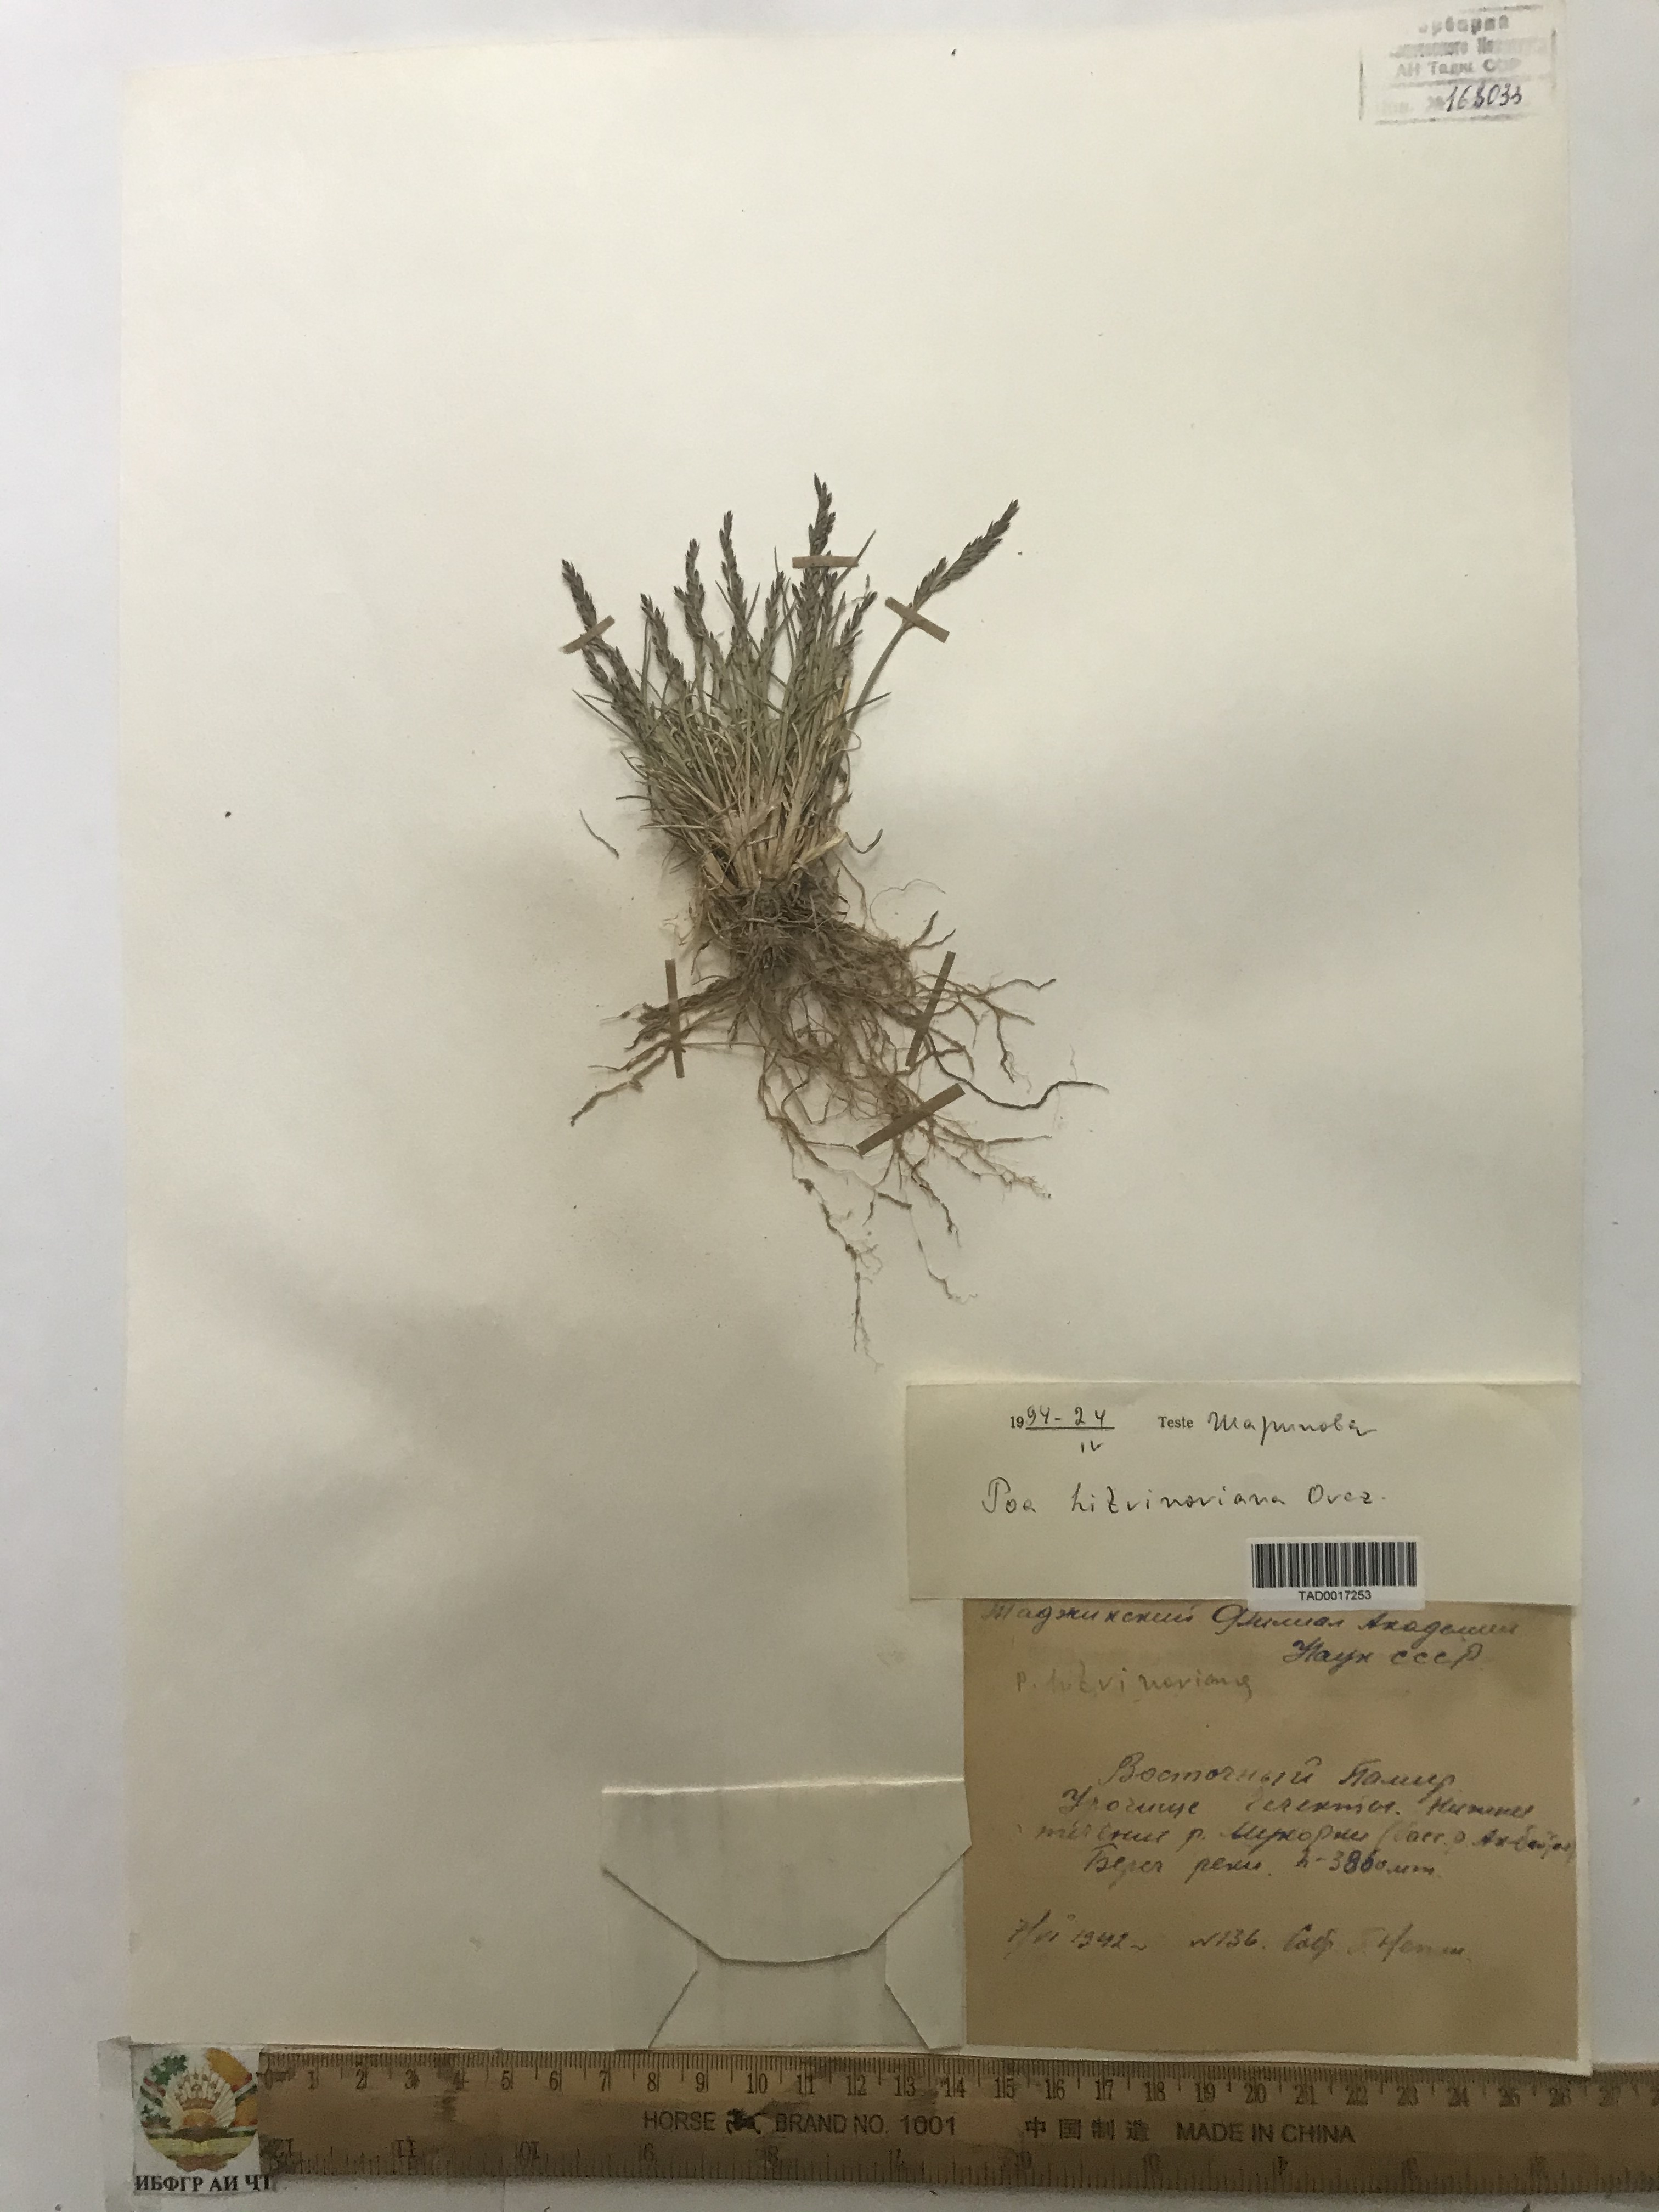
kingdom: Plantae
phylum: Tracheophyta
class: Liliopsida
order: Poales
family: Poaceae
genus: Poa
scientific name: Poa glauca
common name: Glaucous bluegrass
